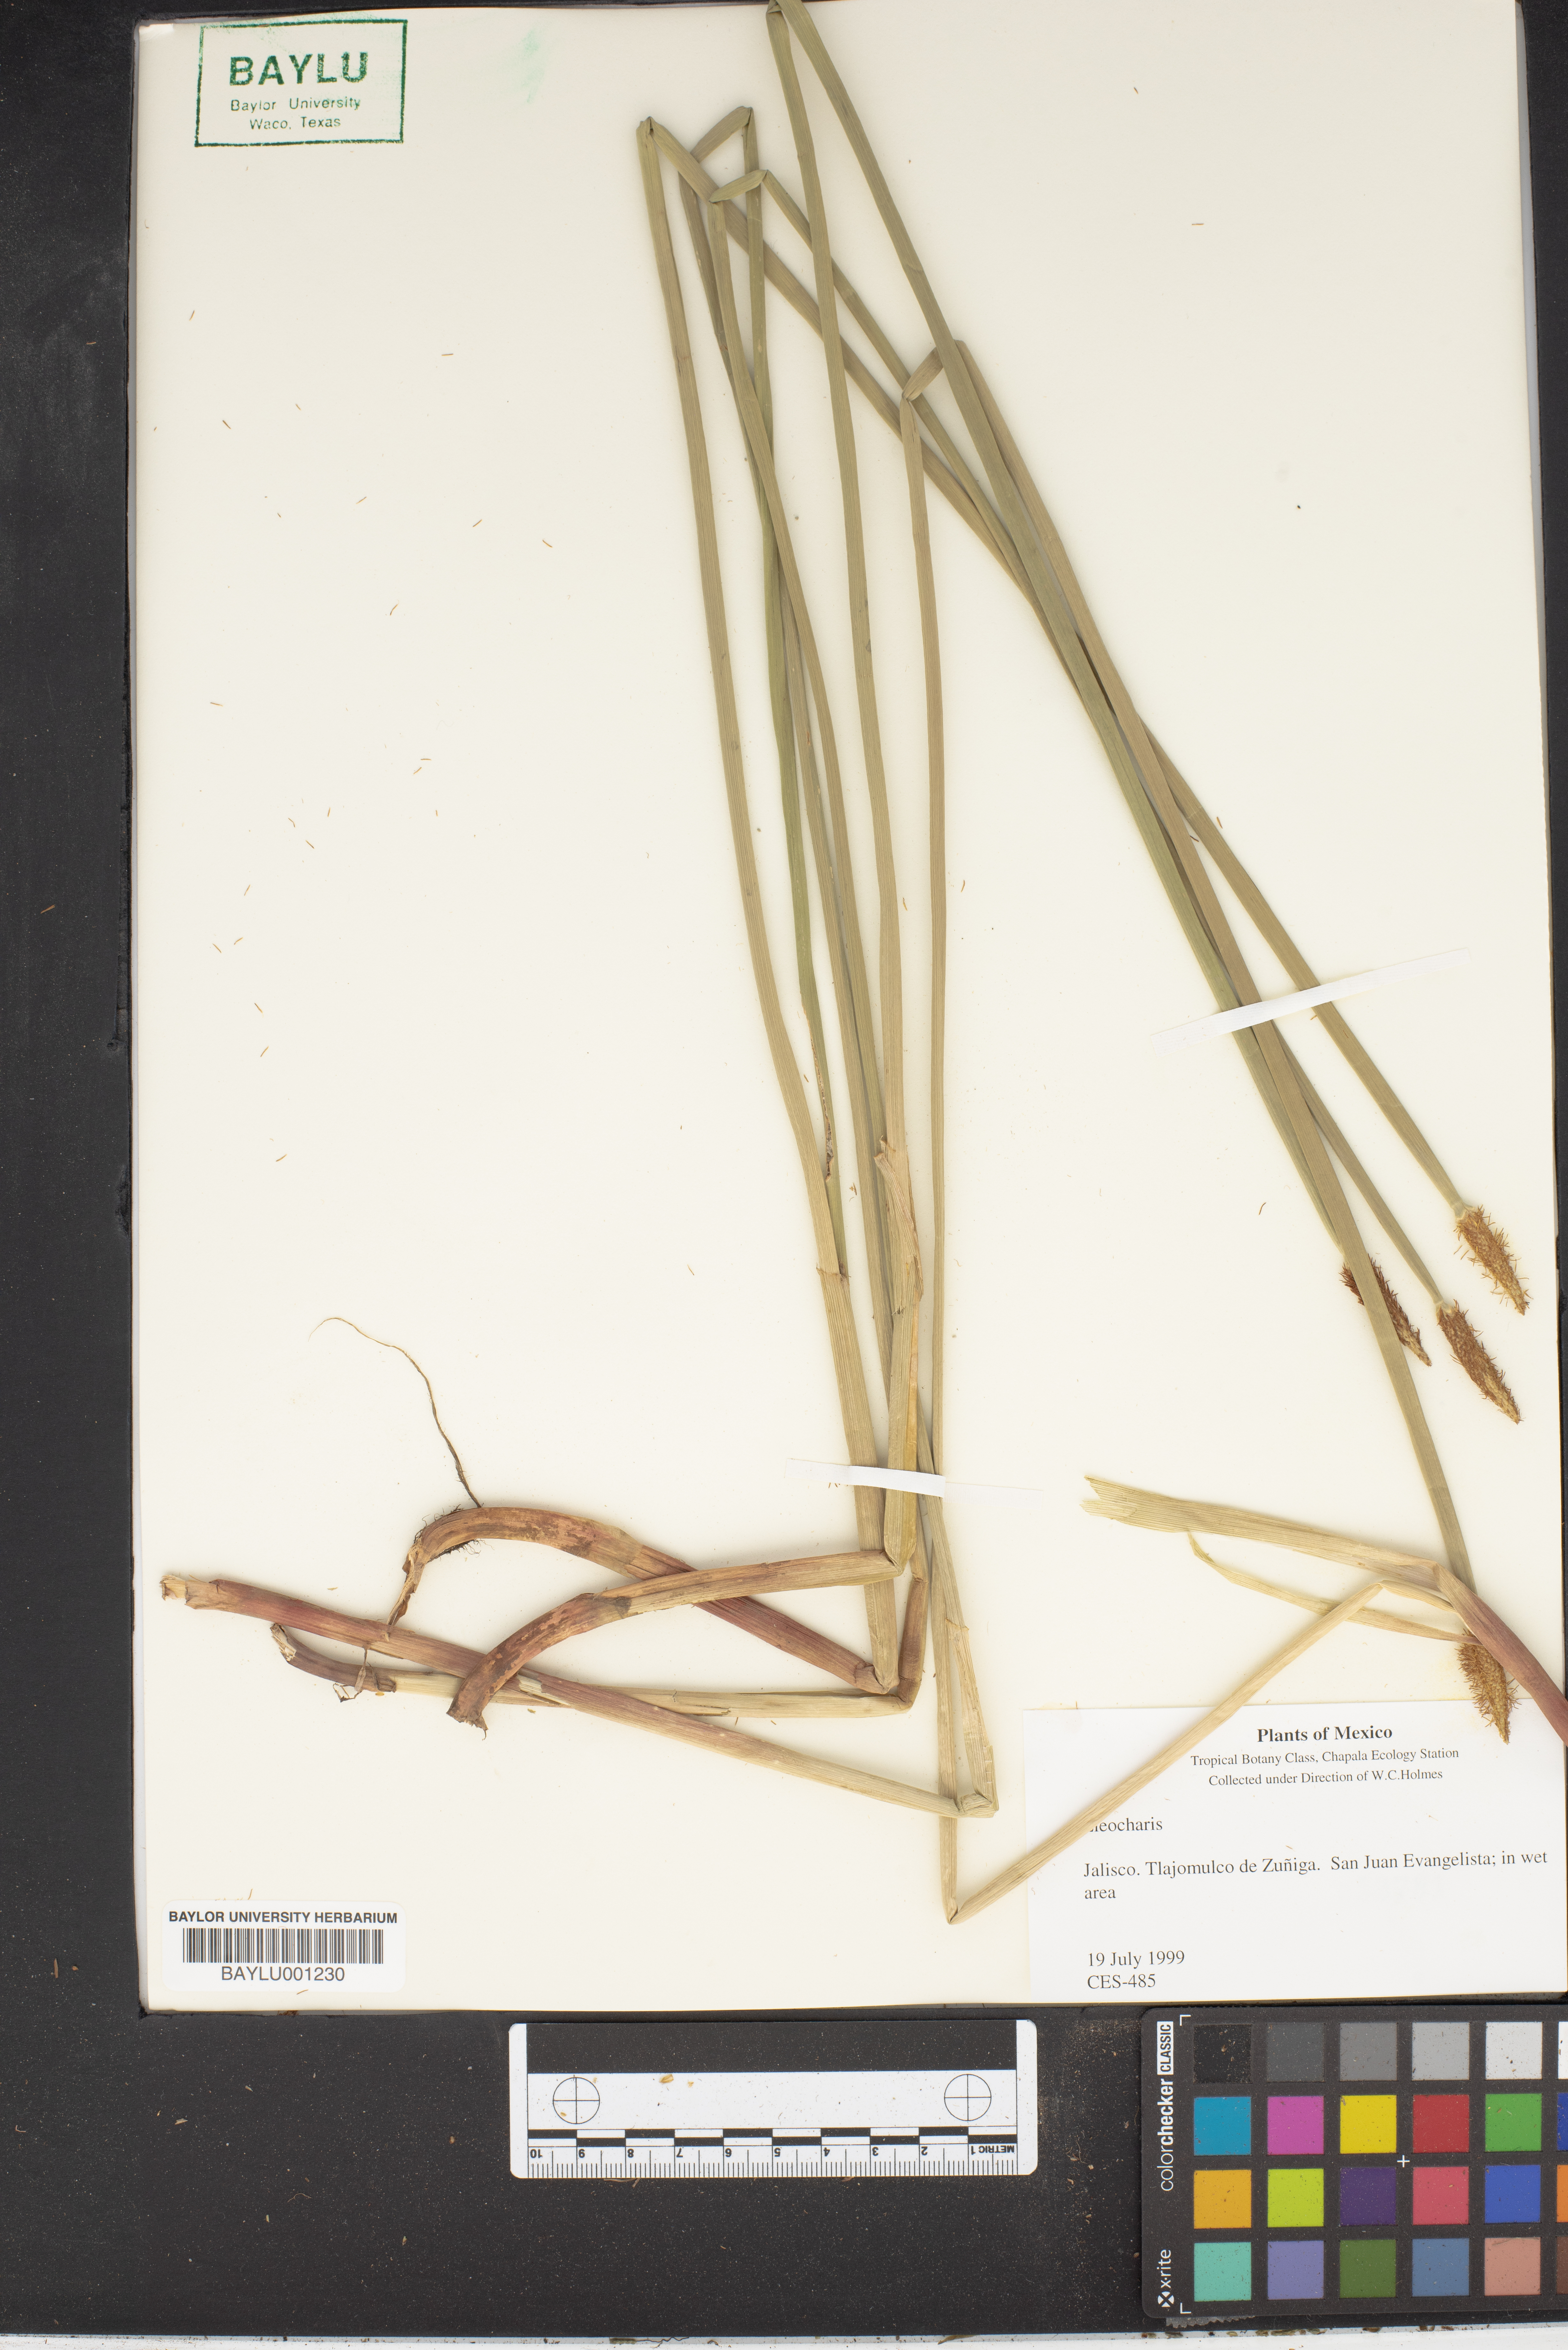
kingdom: Plantae
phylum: Tracheophyta
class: Liliopsida
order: Poales
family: Cyperaceae
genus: Eleocharis
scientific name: Eleocharis
